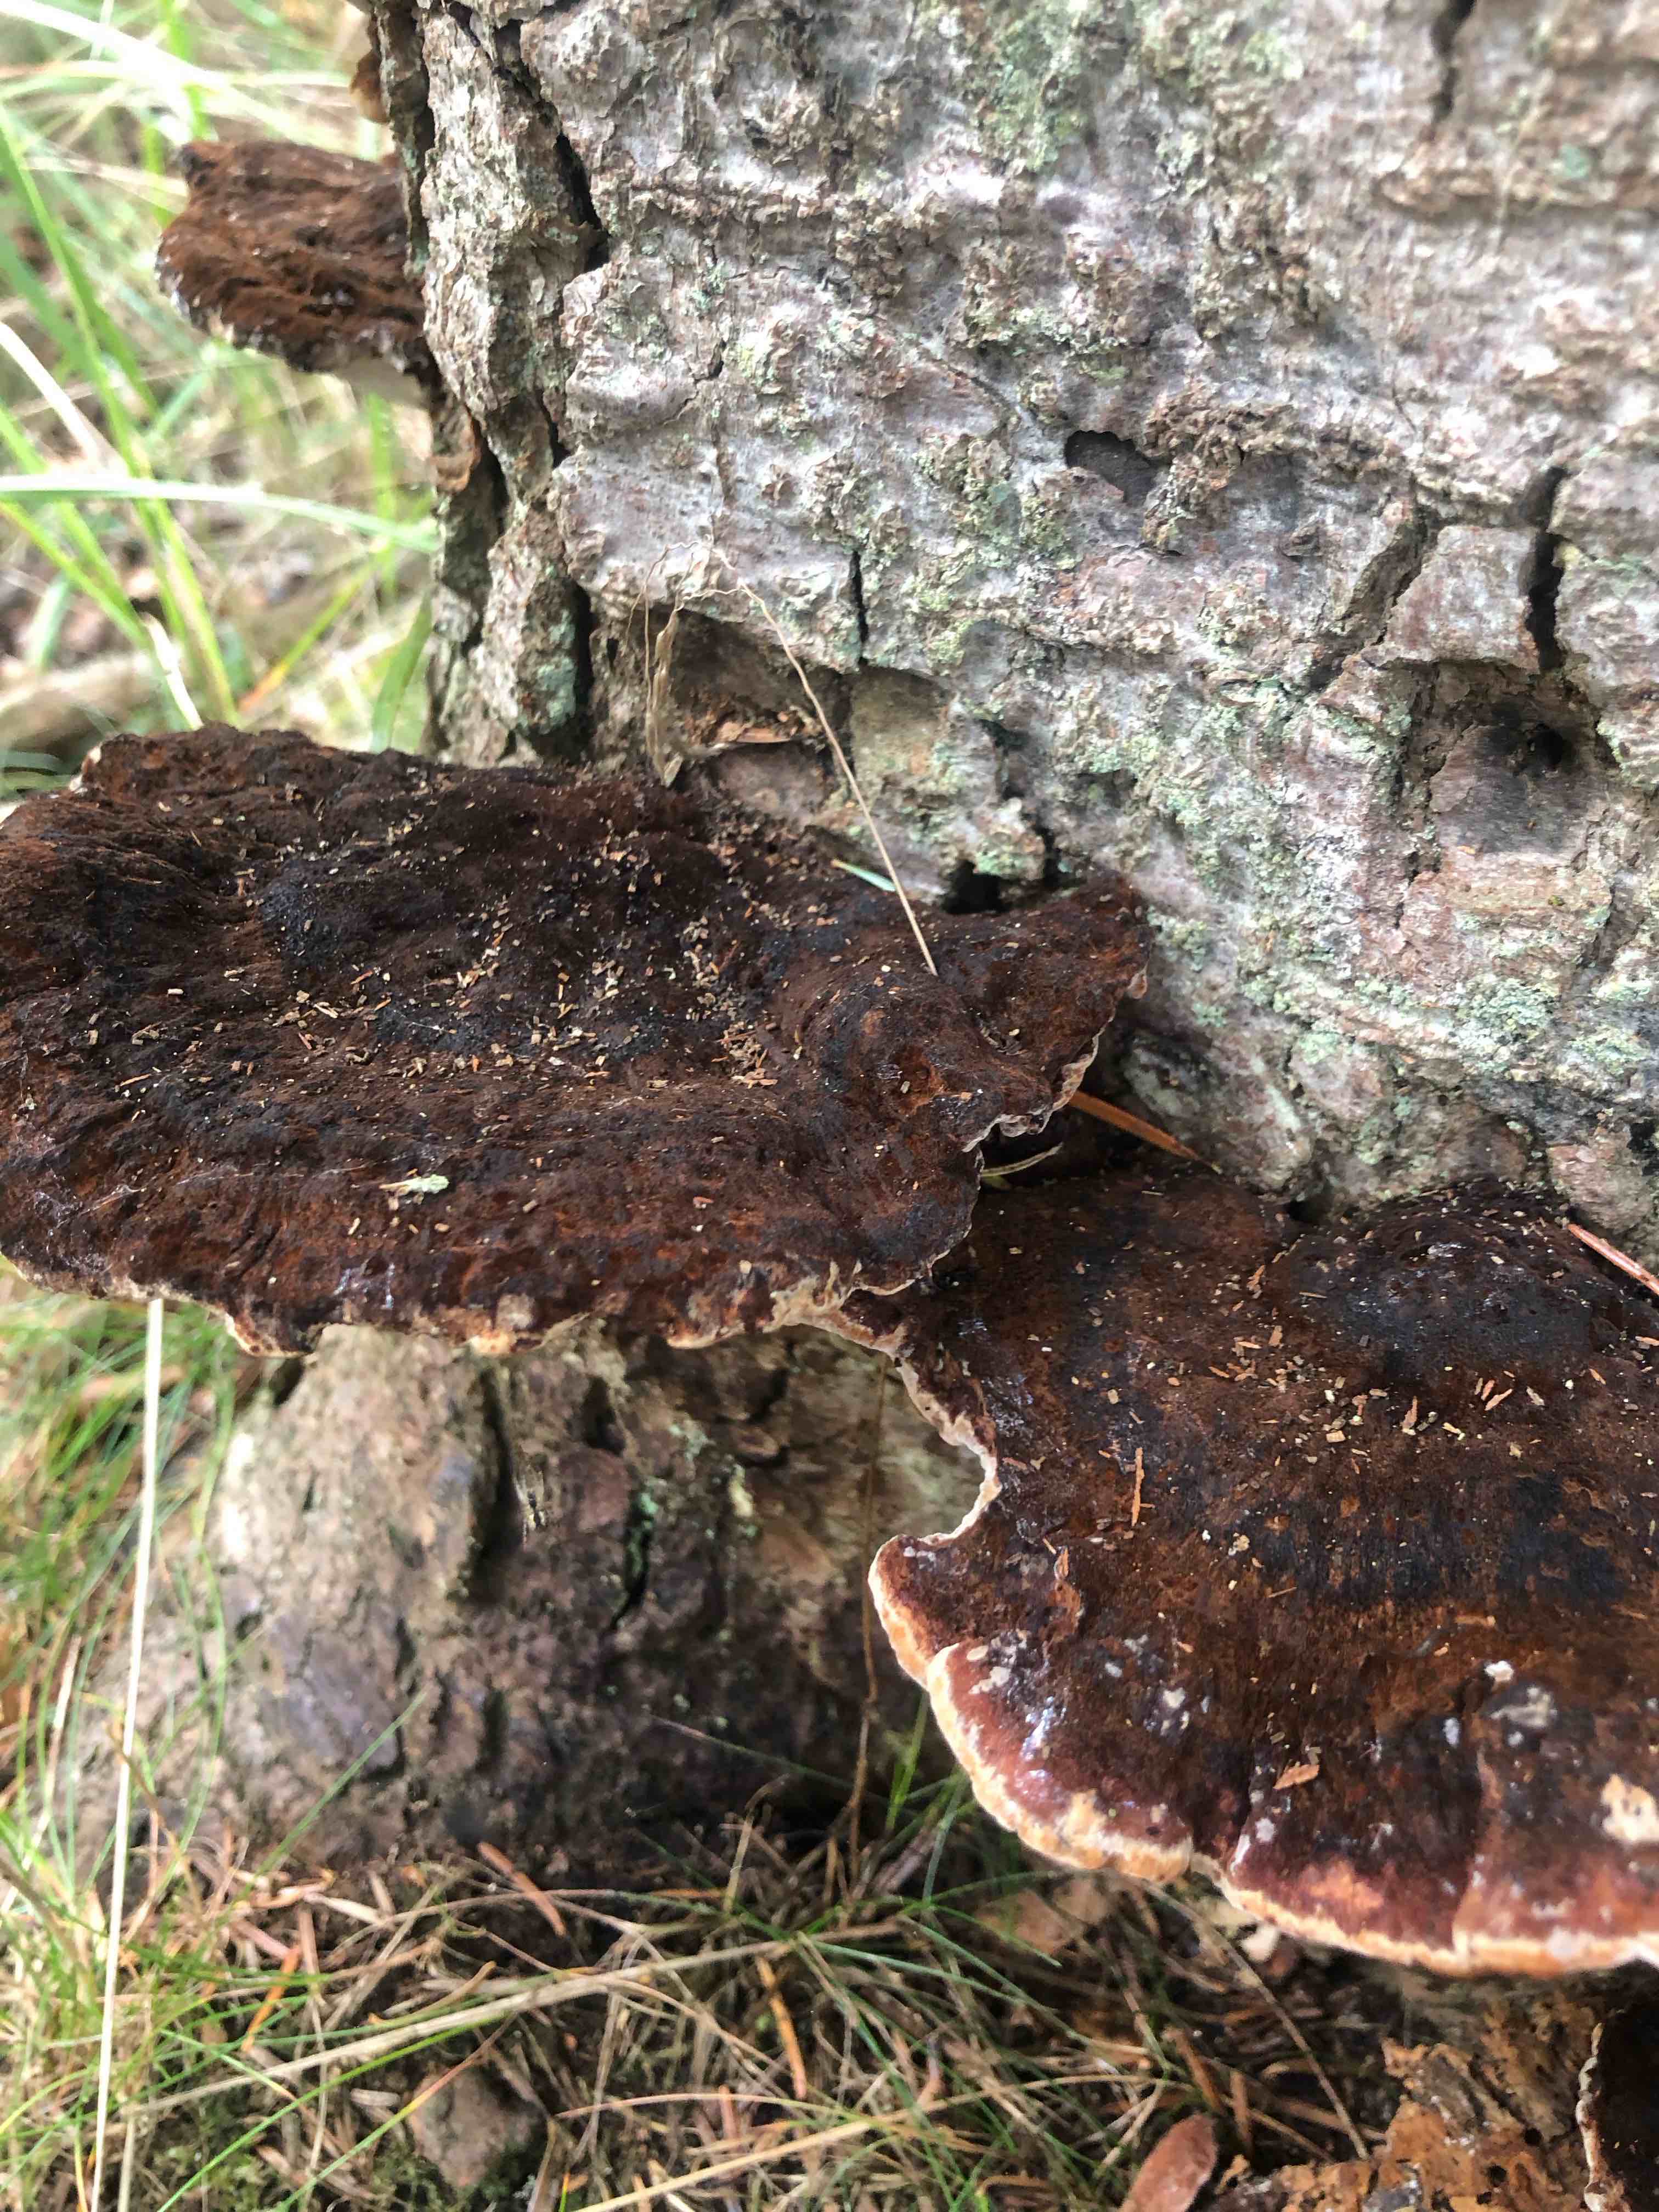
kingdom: Fungi
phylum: Basidiomycota
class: Agaricomycetes
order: Polyporales
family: Ischnodermataceae
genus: Ischnoderma
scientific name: Ischnoderma benzoinum
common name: gran-tjæreporesvamp
